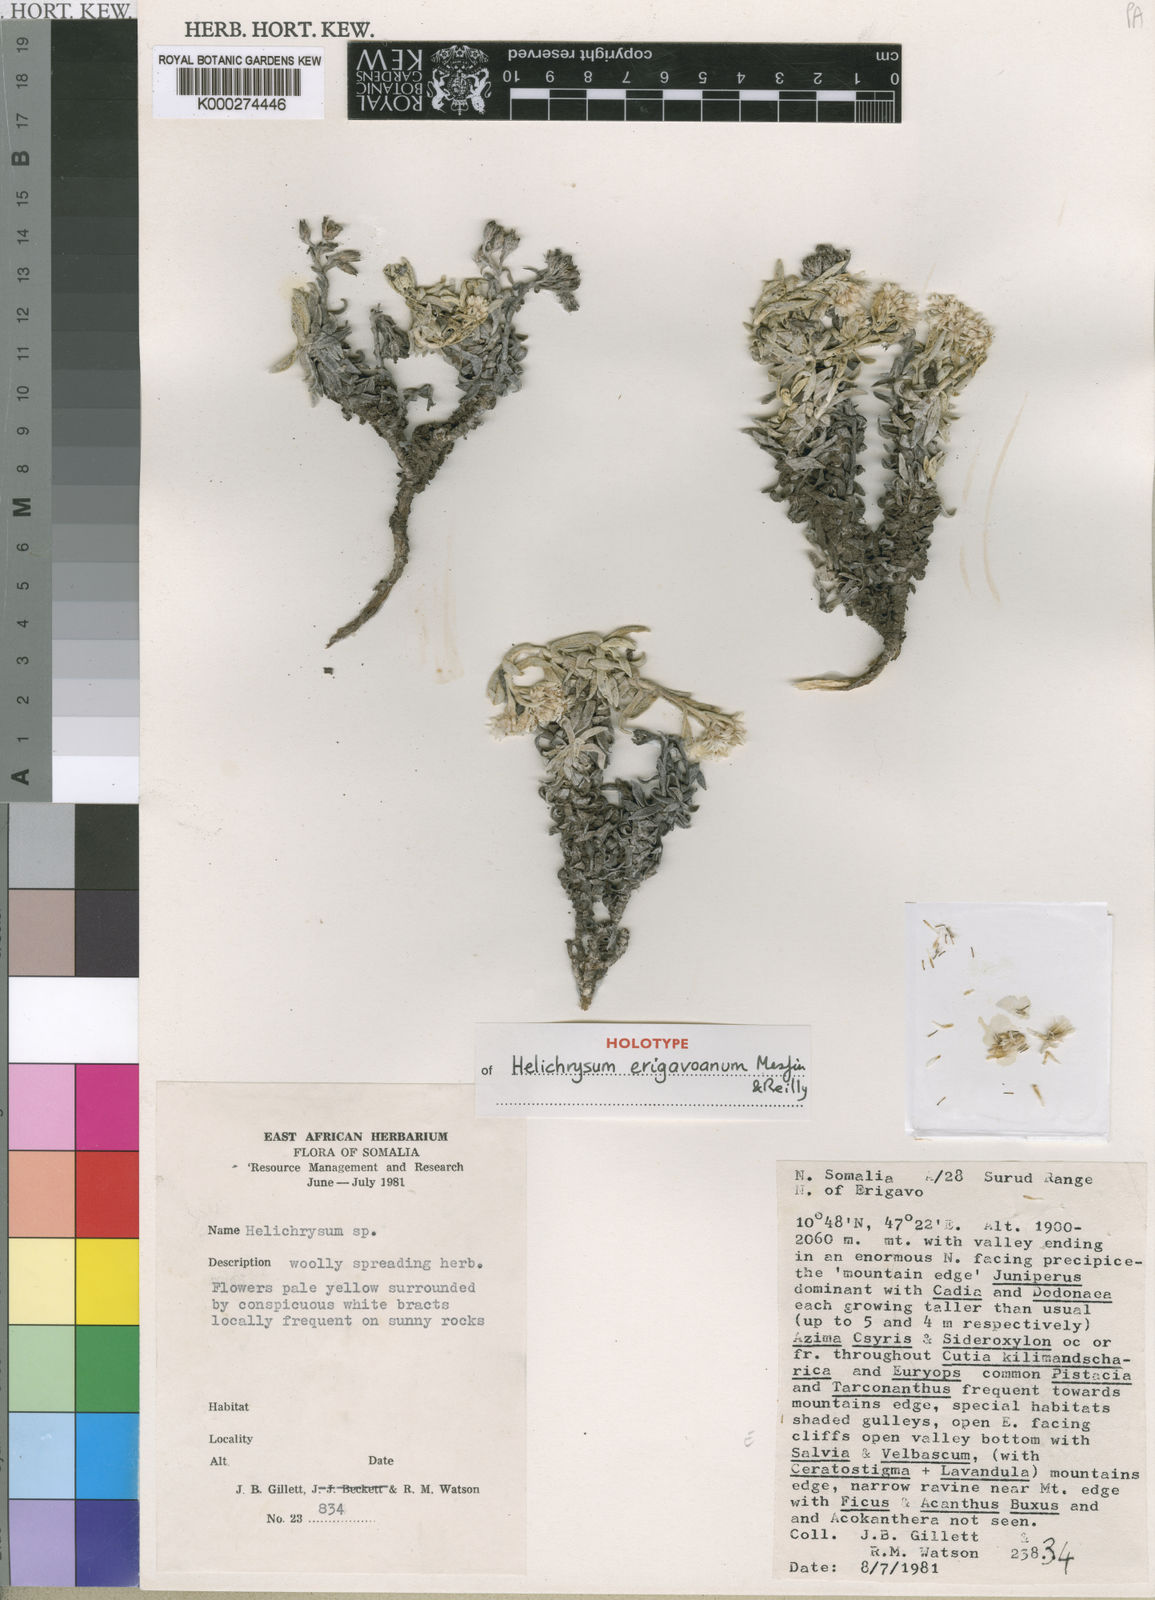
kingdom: Plantae
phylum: Tracheophyta
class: Magnoliopsida
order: Asterales
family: Asteraceae
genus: Helichrysum
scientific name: Helichrysum erigavoanum
